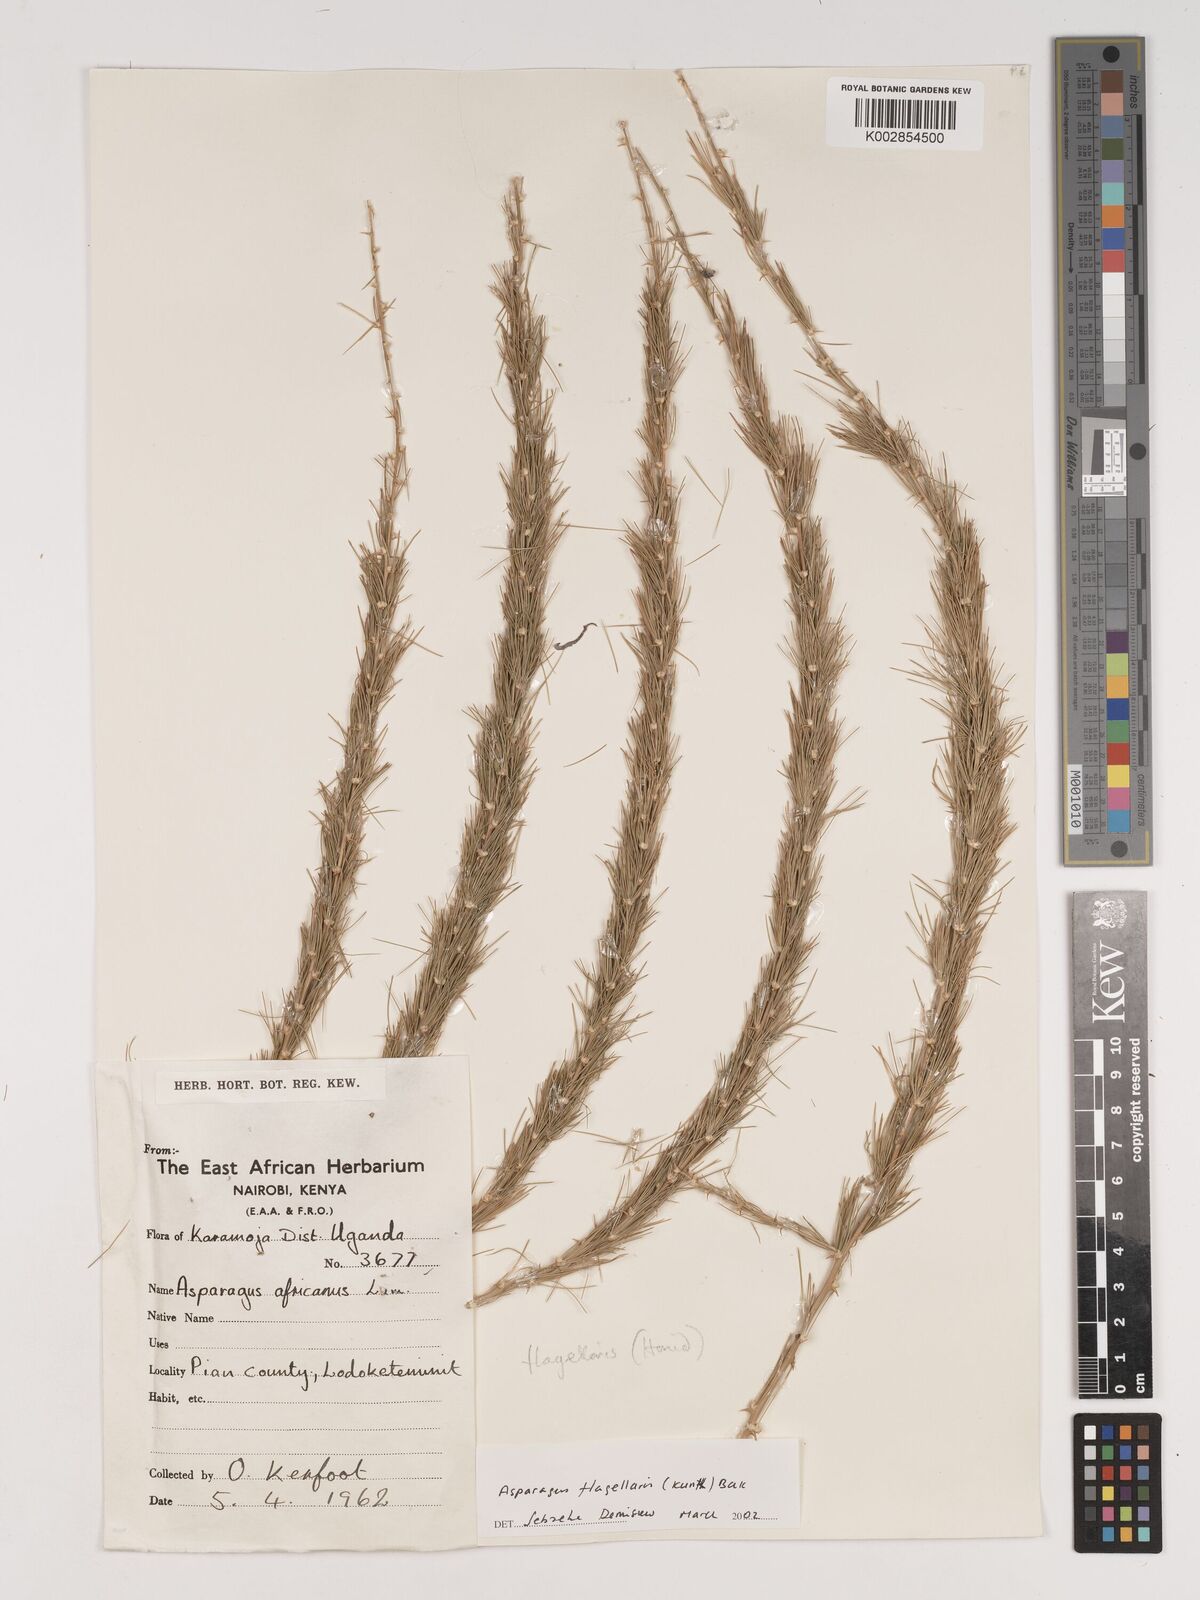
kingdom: Plantae
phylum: Tracheophyta
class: Liliopsida
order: Asparagales
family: Asparagaceae
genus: Asparagus
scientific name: Asparagus flagellaris
